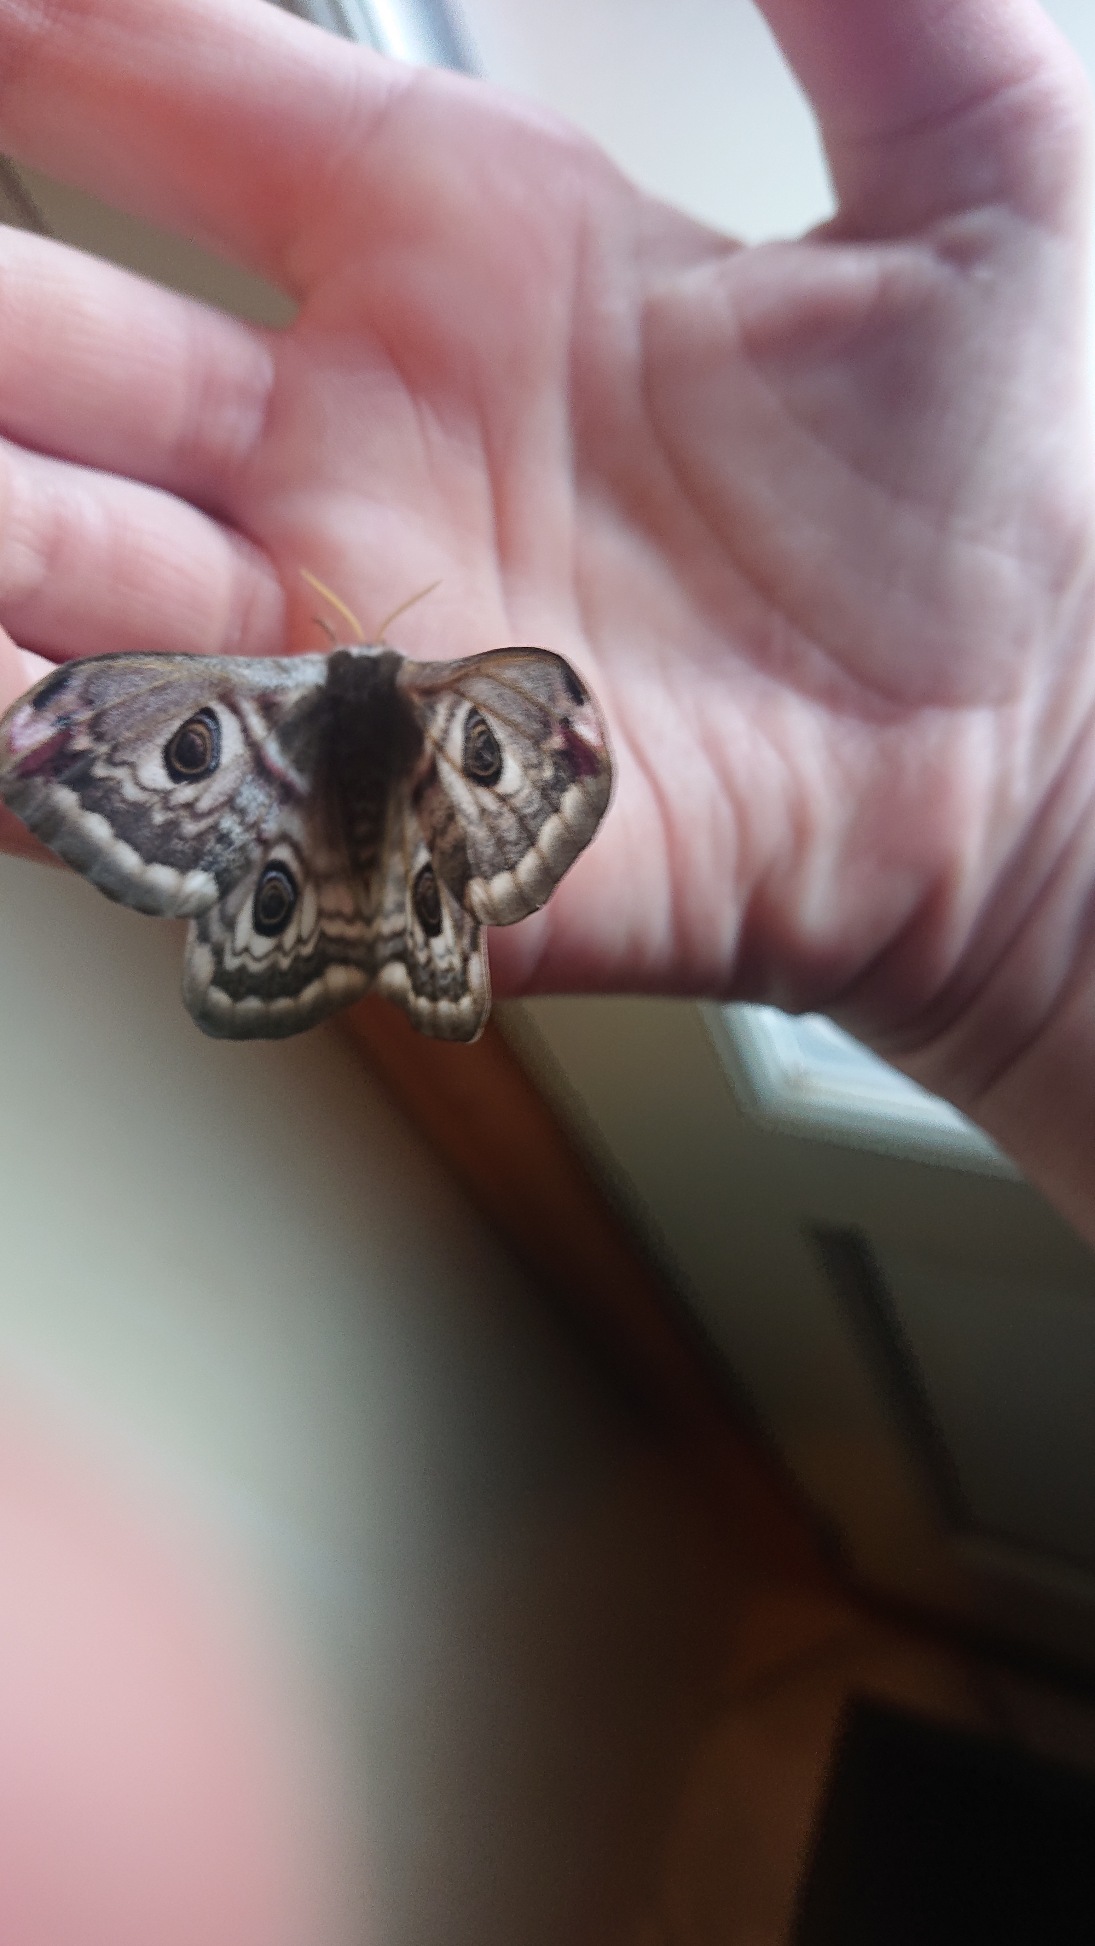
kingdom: Animalia
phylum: Arthropoda
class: Insecta
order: Lepidoptera
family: Saturniidae
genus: Saturnia
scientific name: Saturnia pavonia
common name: Lille natpåfugleøje
